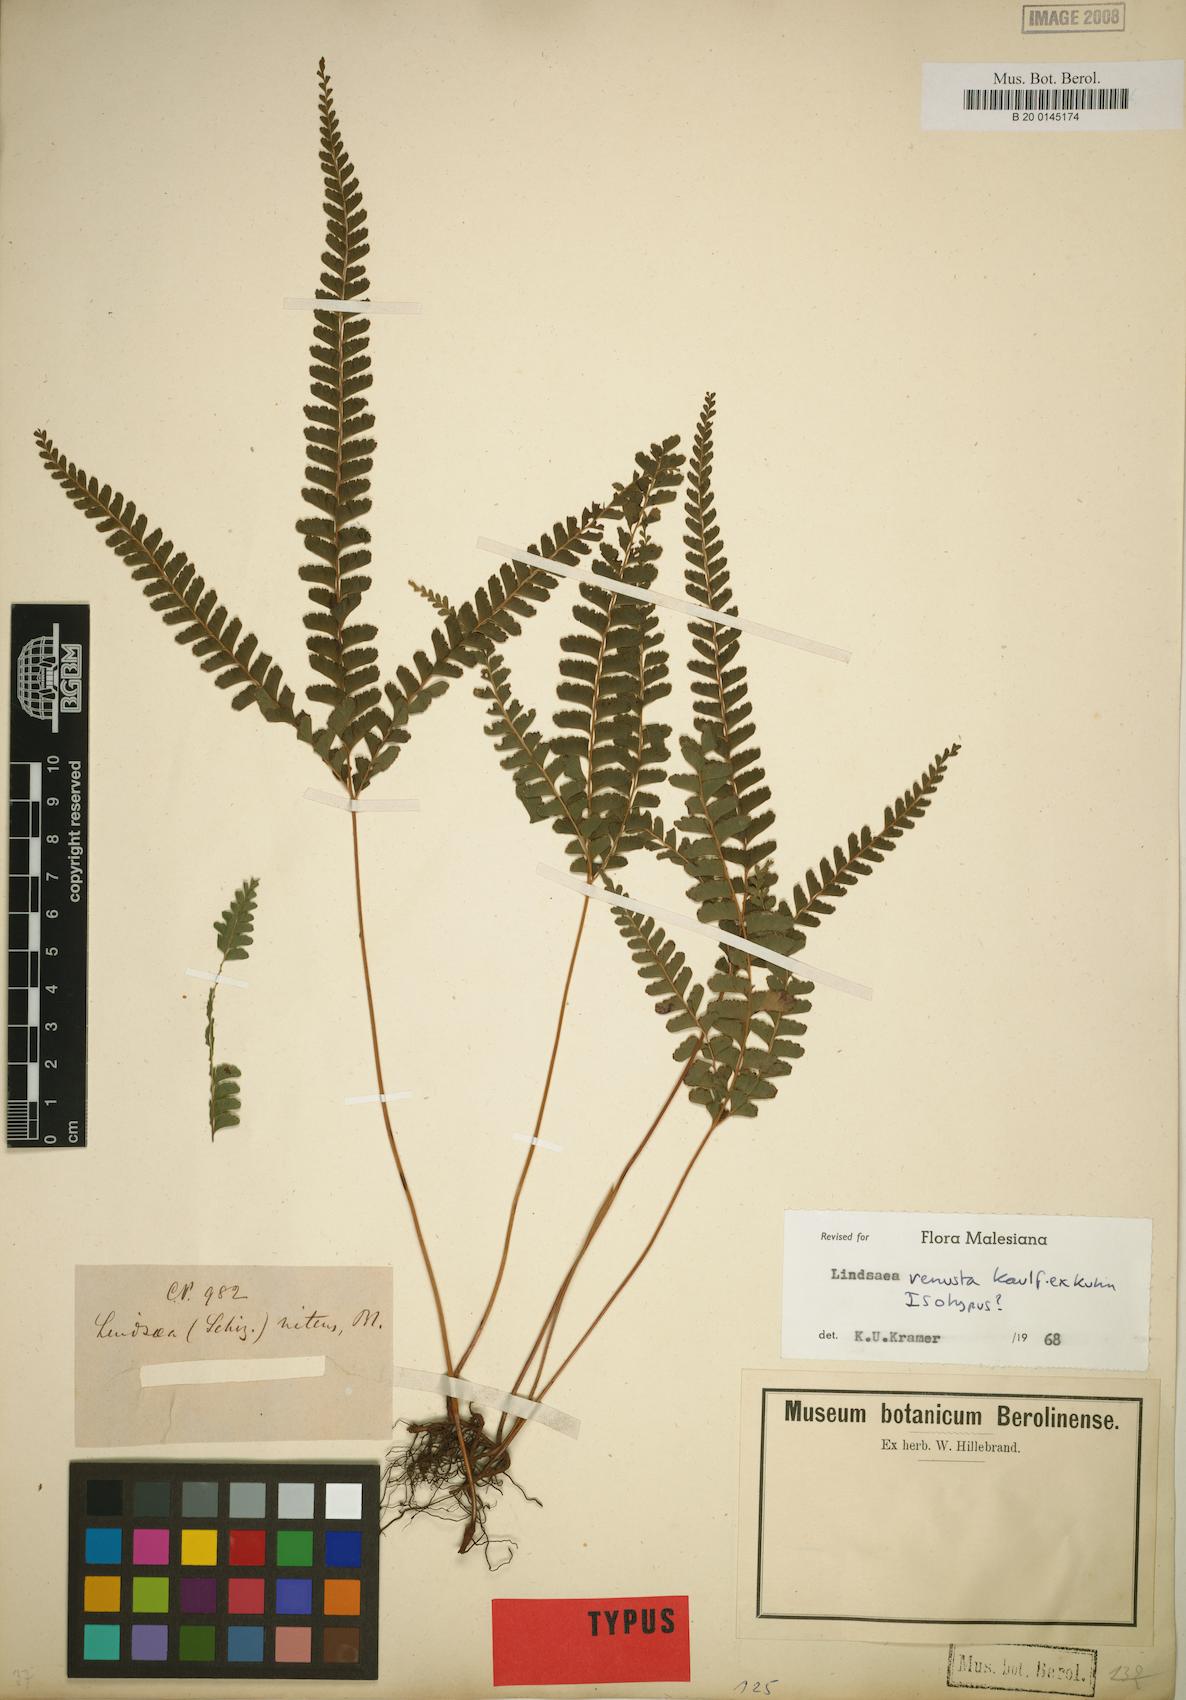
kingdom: Plantae
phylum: Tracheophyta
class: Polypodiopsida
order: Polypodiales
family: Lindsaeaceae
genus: Lindsaea
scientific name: Lindsaea venusta
